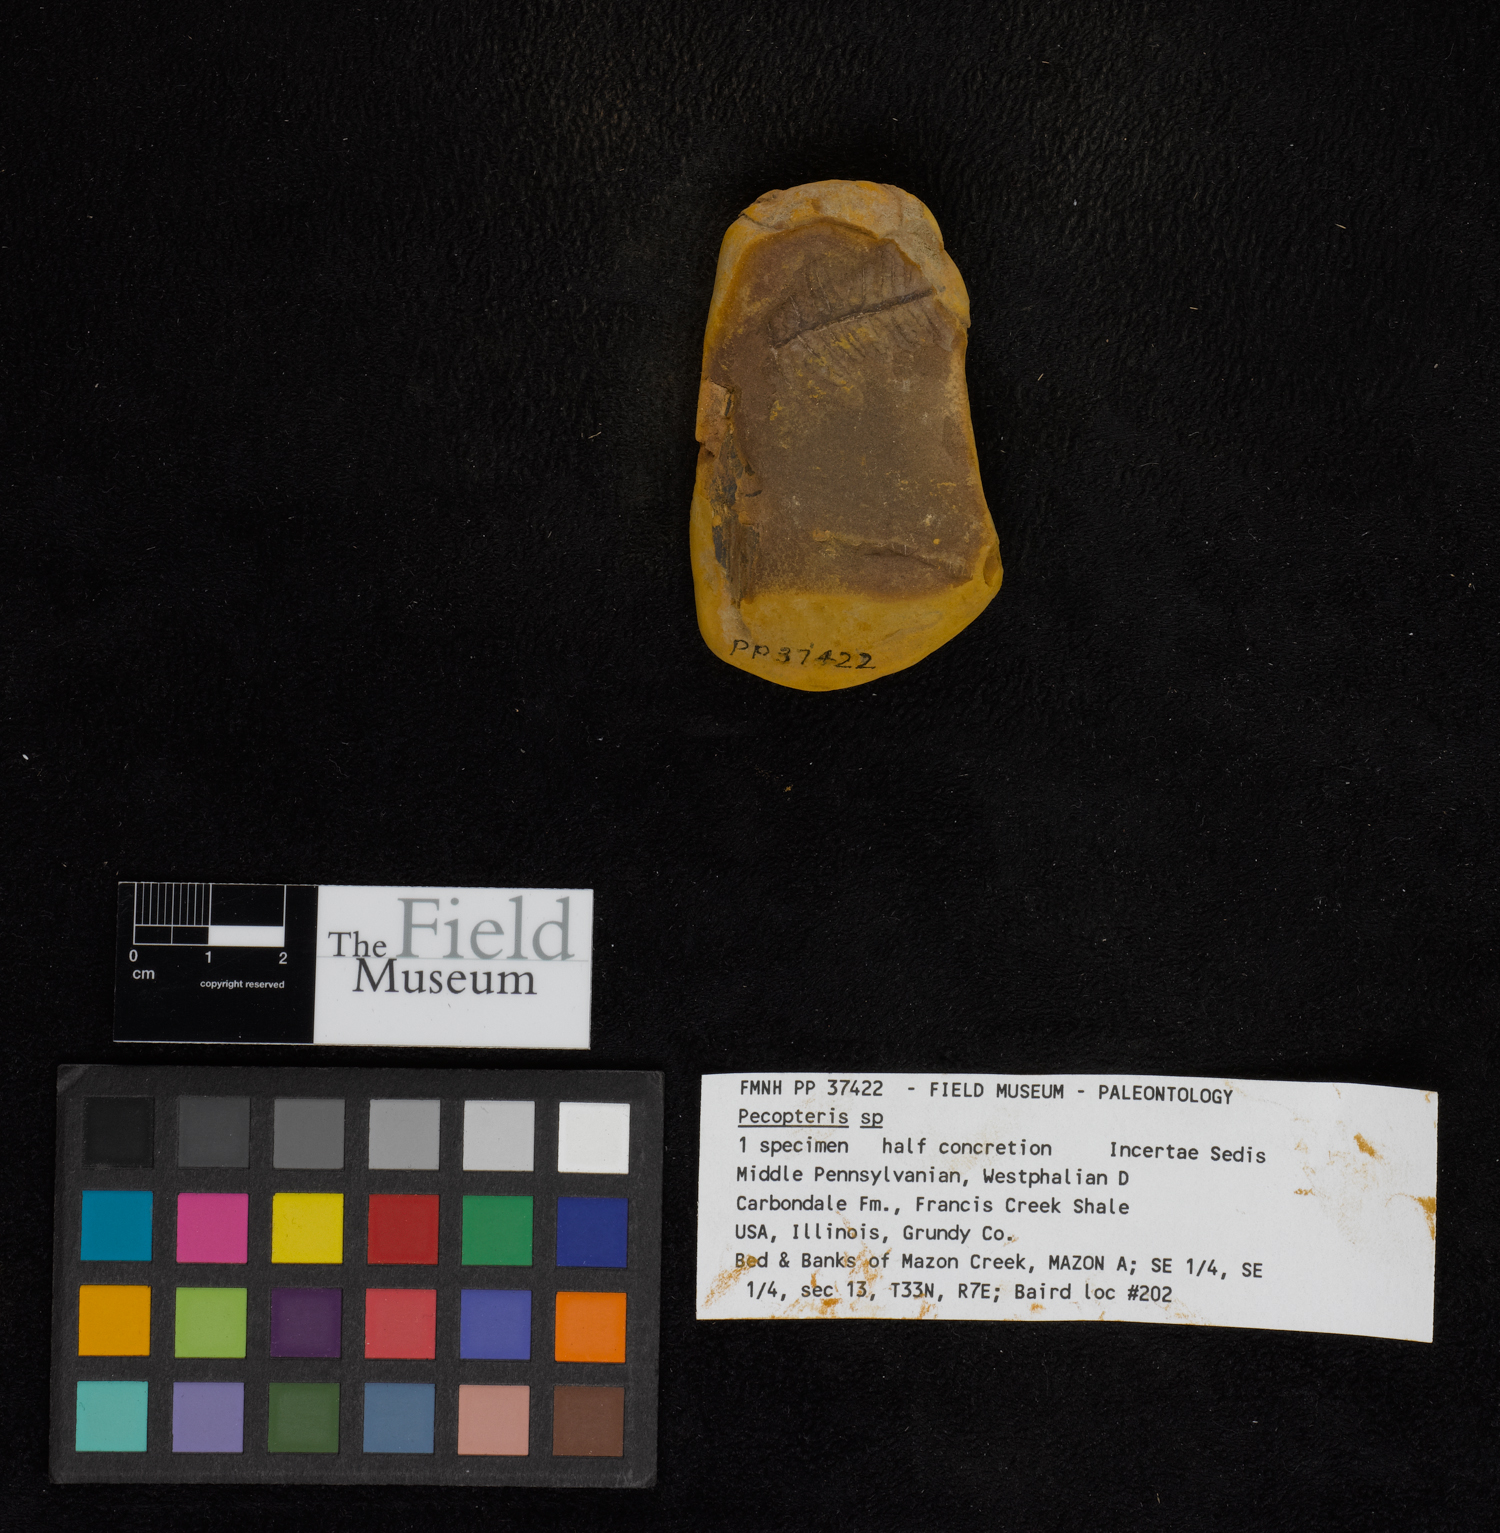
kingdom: Plantae
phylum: Tracheophyta
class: Polypodiopsida
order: Marattiales
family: Asterothecaceae
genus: Pecopteris
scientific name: Pecopteris
